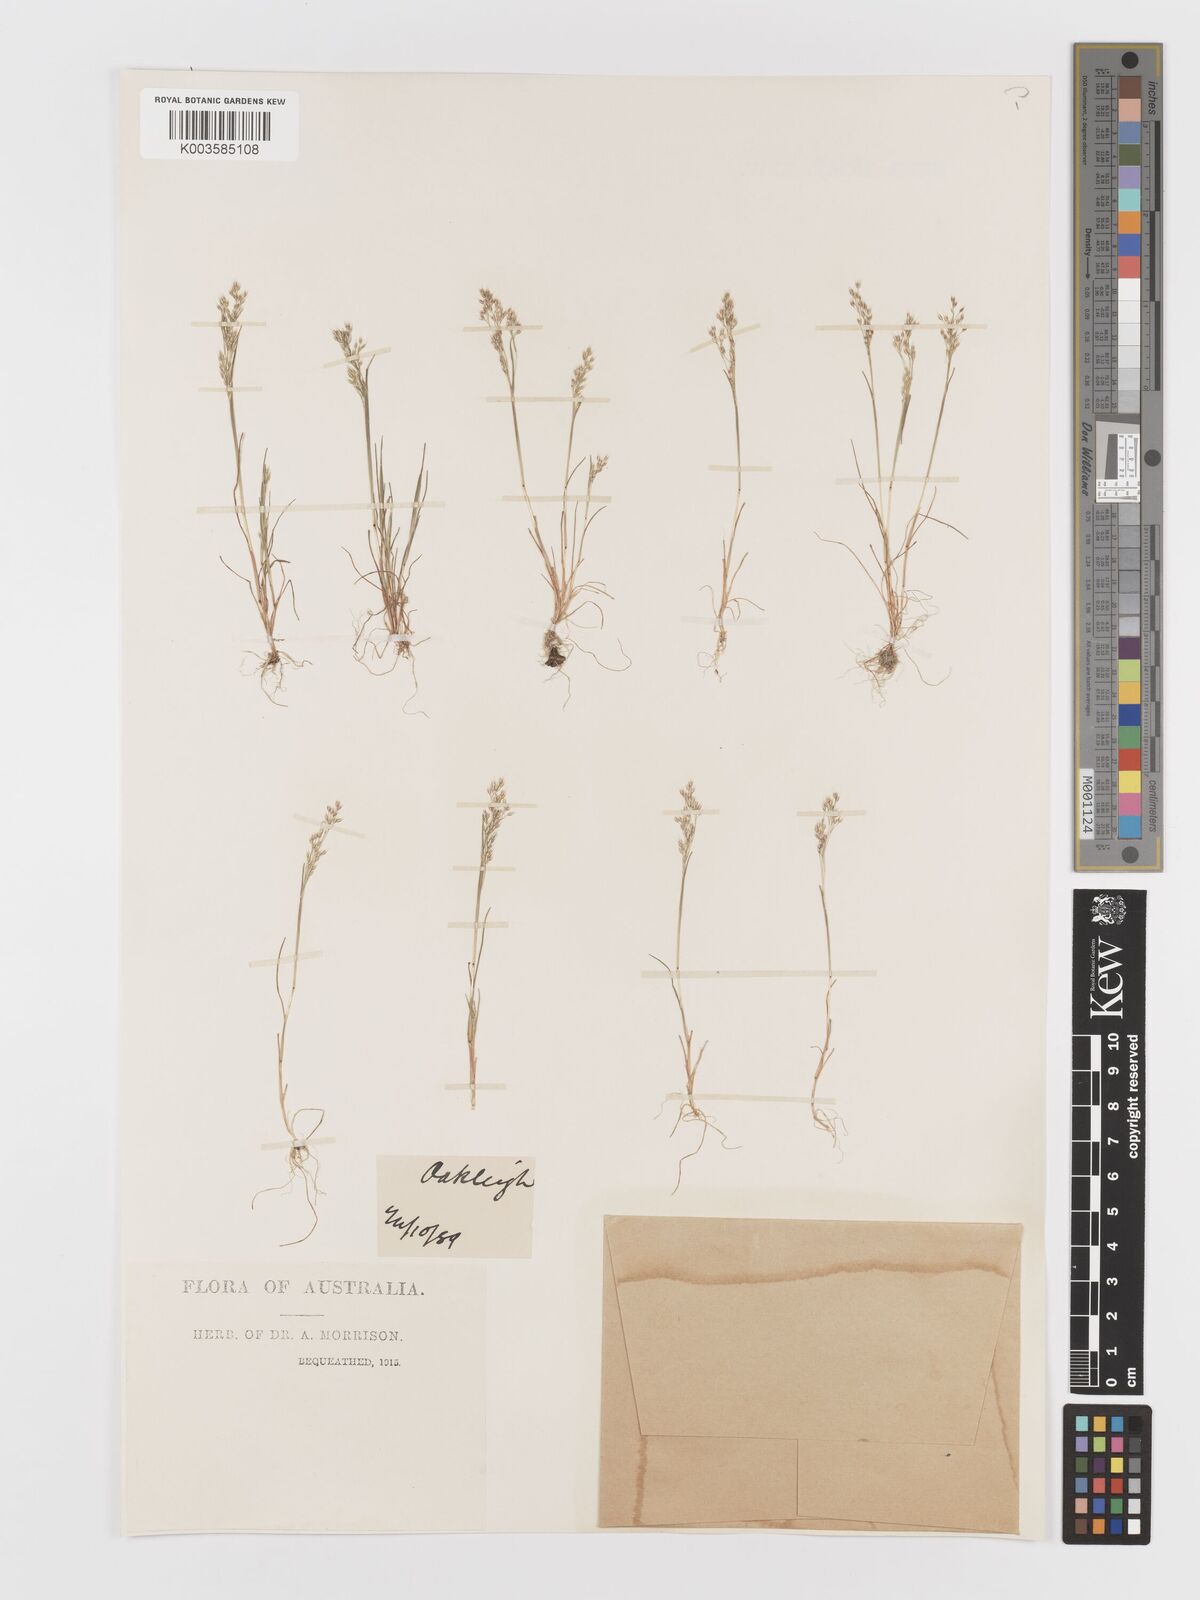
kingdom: Plantae
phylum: Tracheophyta
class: Liliopsida
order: Poales
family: Poaceae
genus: Aira
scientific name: Aira caryophyllea
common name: Silver hairgrass
